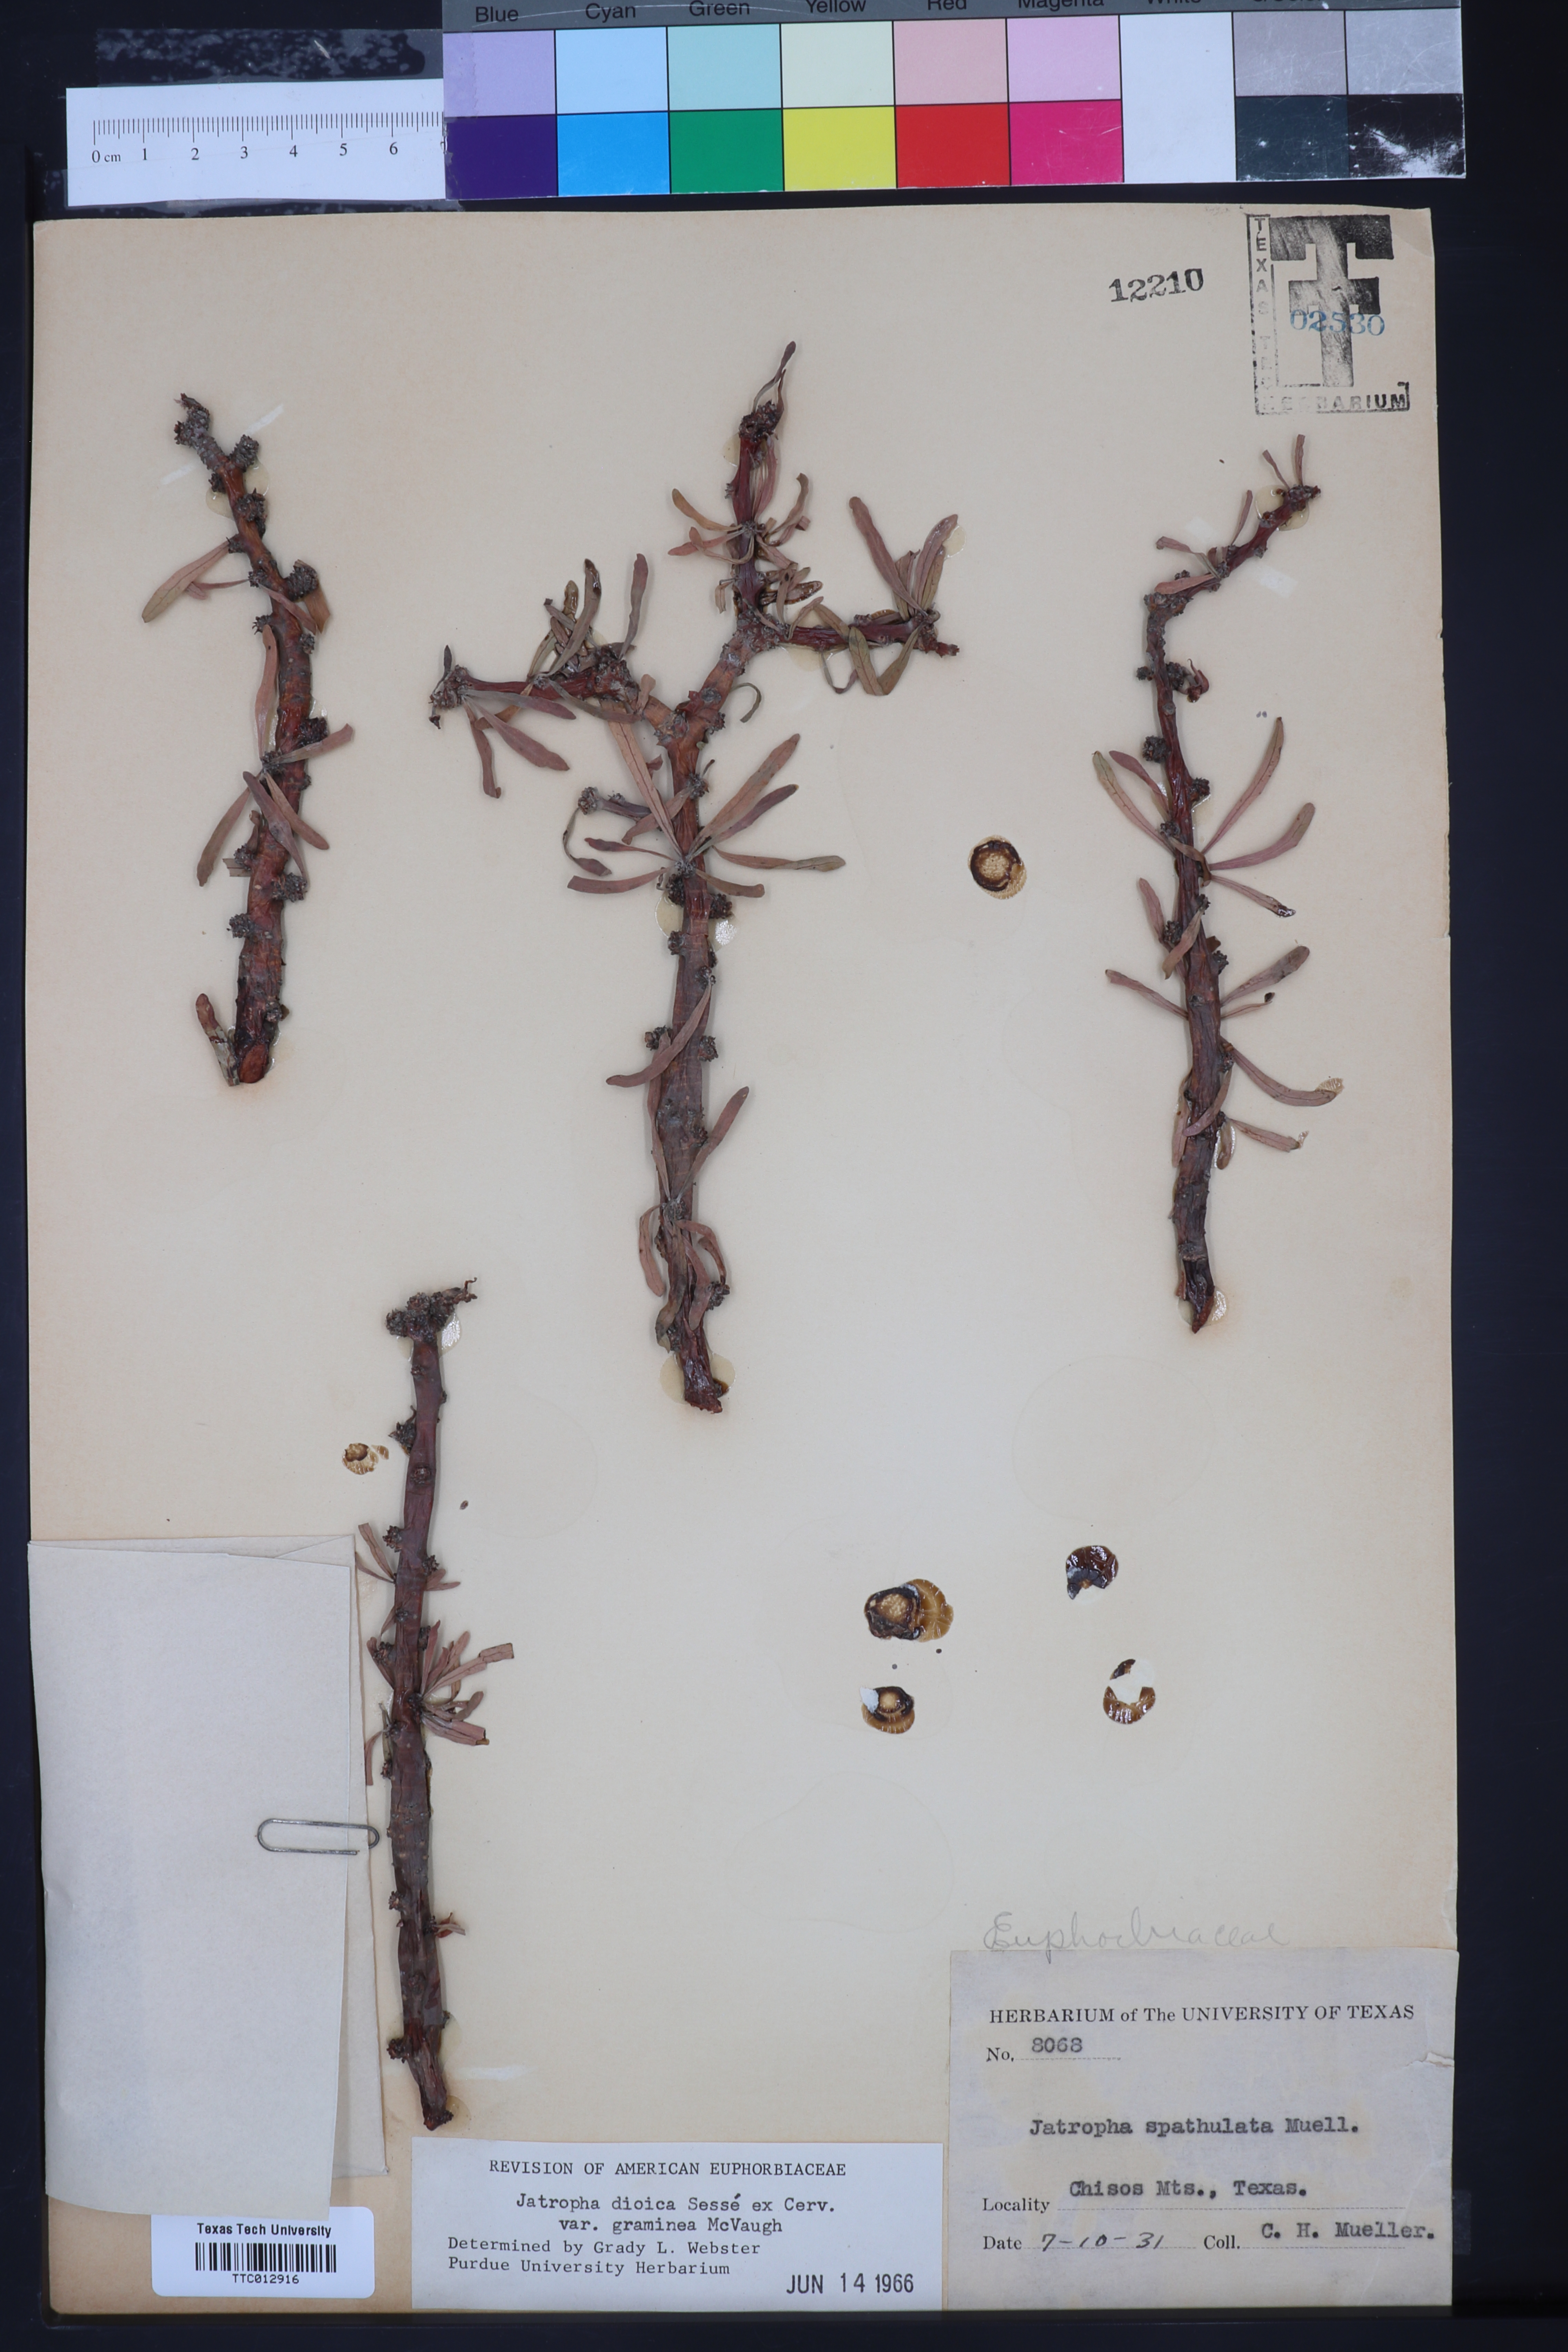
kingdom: Plantae
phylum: Tracheophyta
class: Magnoliopsida
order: Malpighiales
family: Euphorbiaceae
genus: Jatropha
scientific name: Jatropha dioica
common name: Leatherstem
